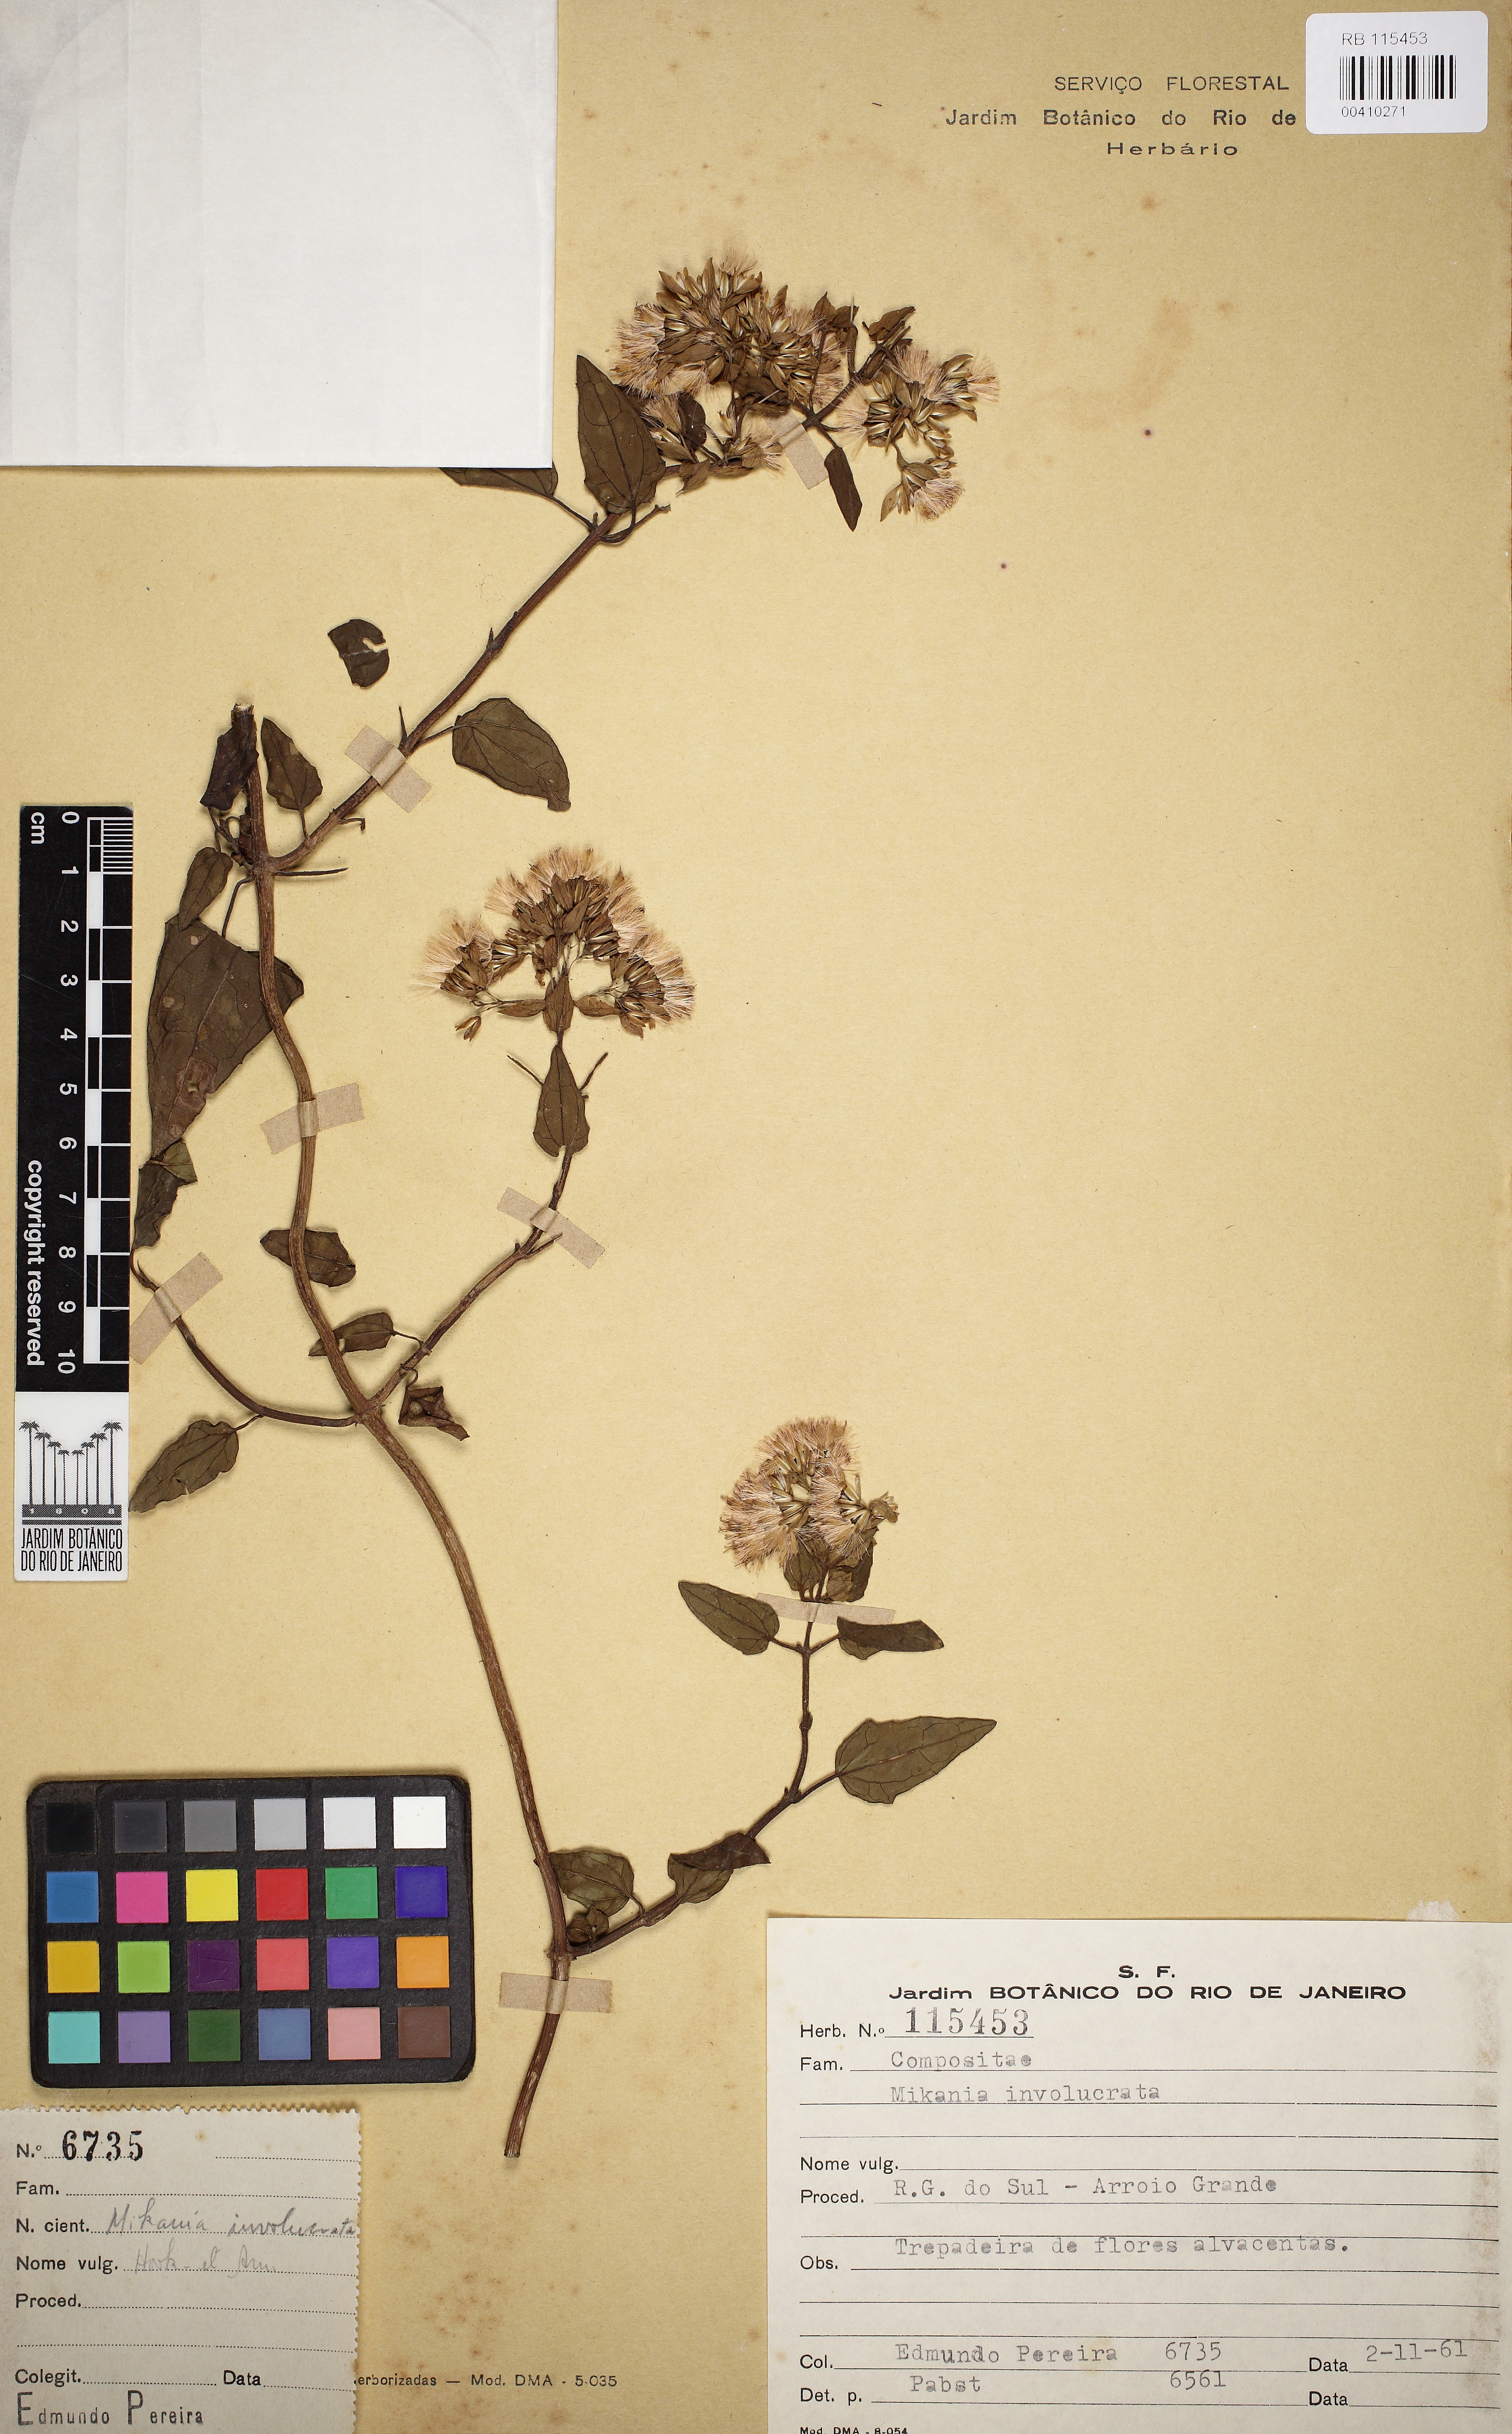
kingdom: Plantae
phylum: Tracheophyta
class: Magnoliopsida
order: Asterales
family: Asteraceae
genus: Mikania
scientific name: Mikania involucrata
